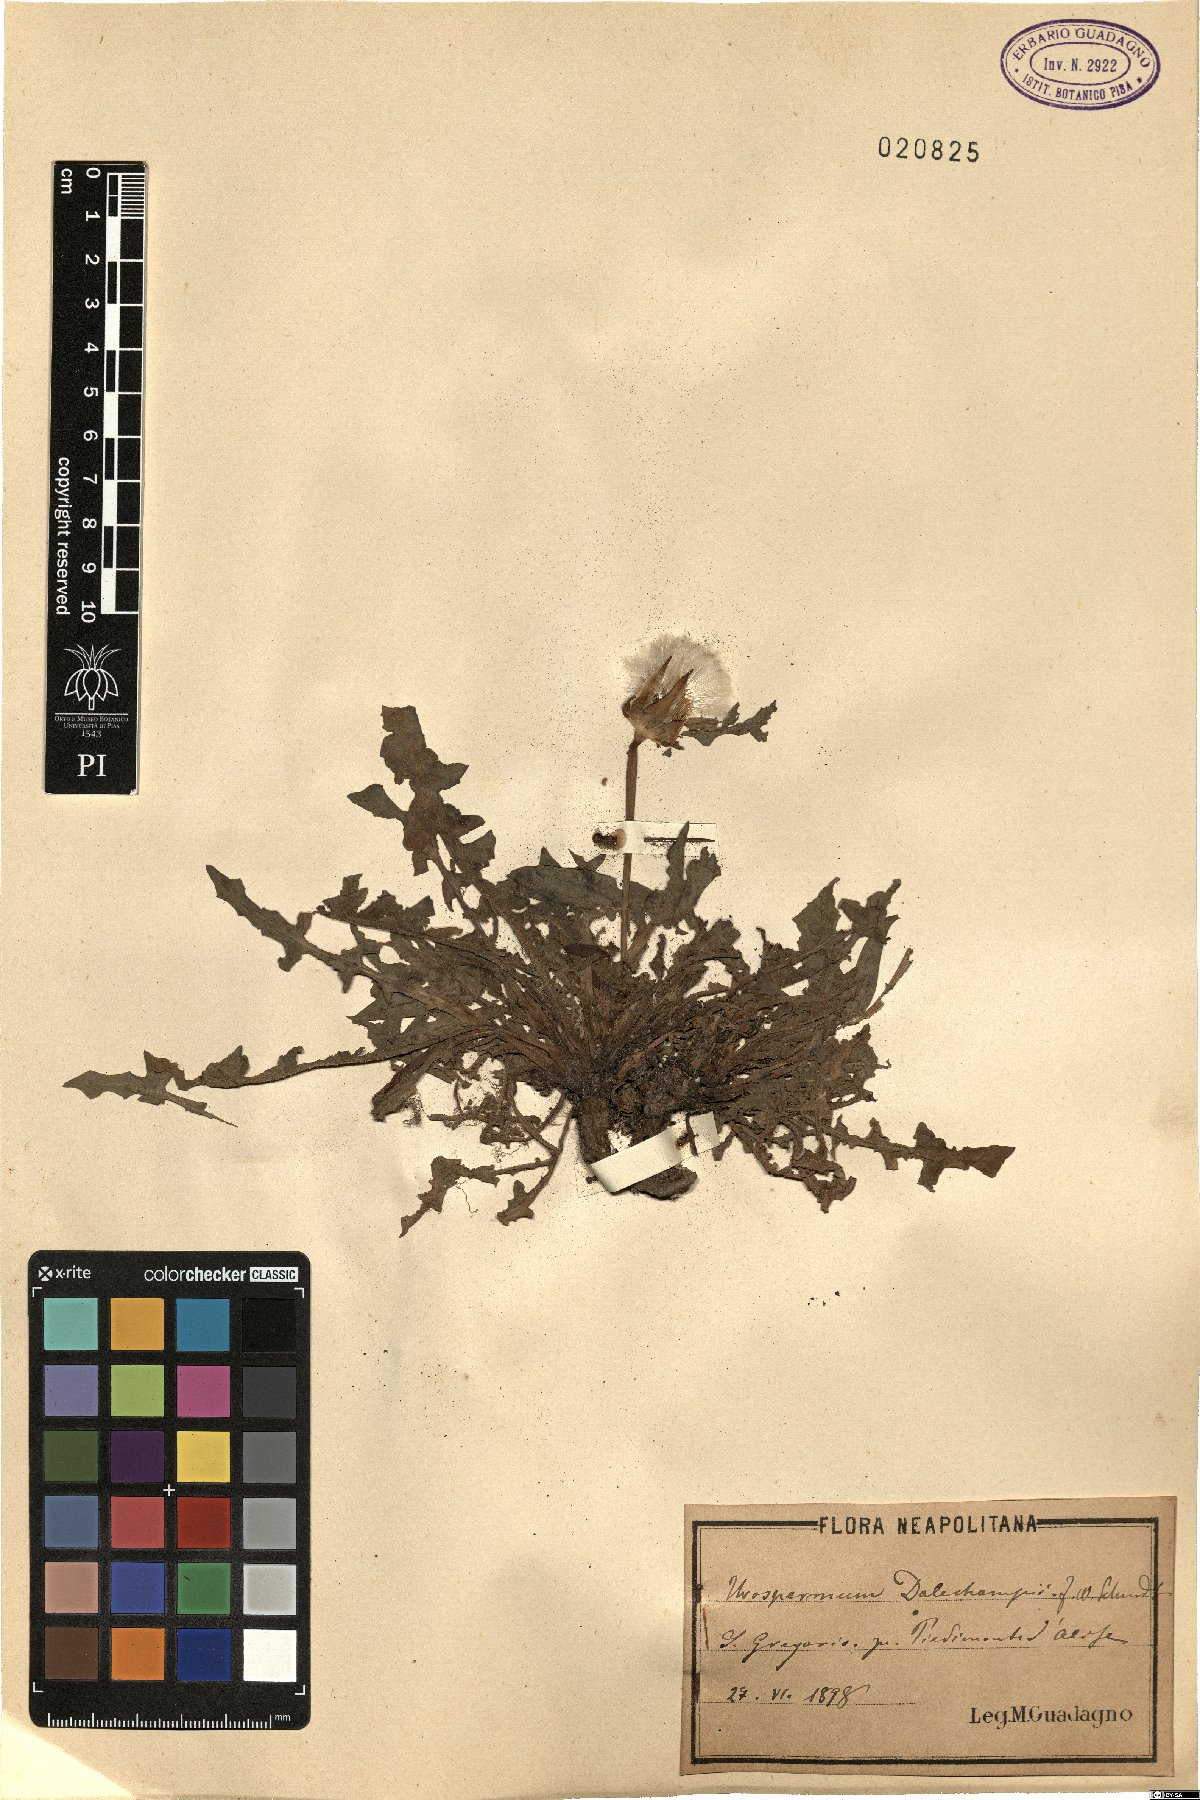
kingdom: Plantae
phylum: Tracheophyta
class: Magnoliopsida
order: Asterales
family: Asteraceae
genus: Urospermum
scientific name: Urospermum dalechampii
